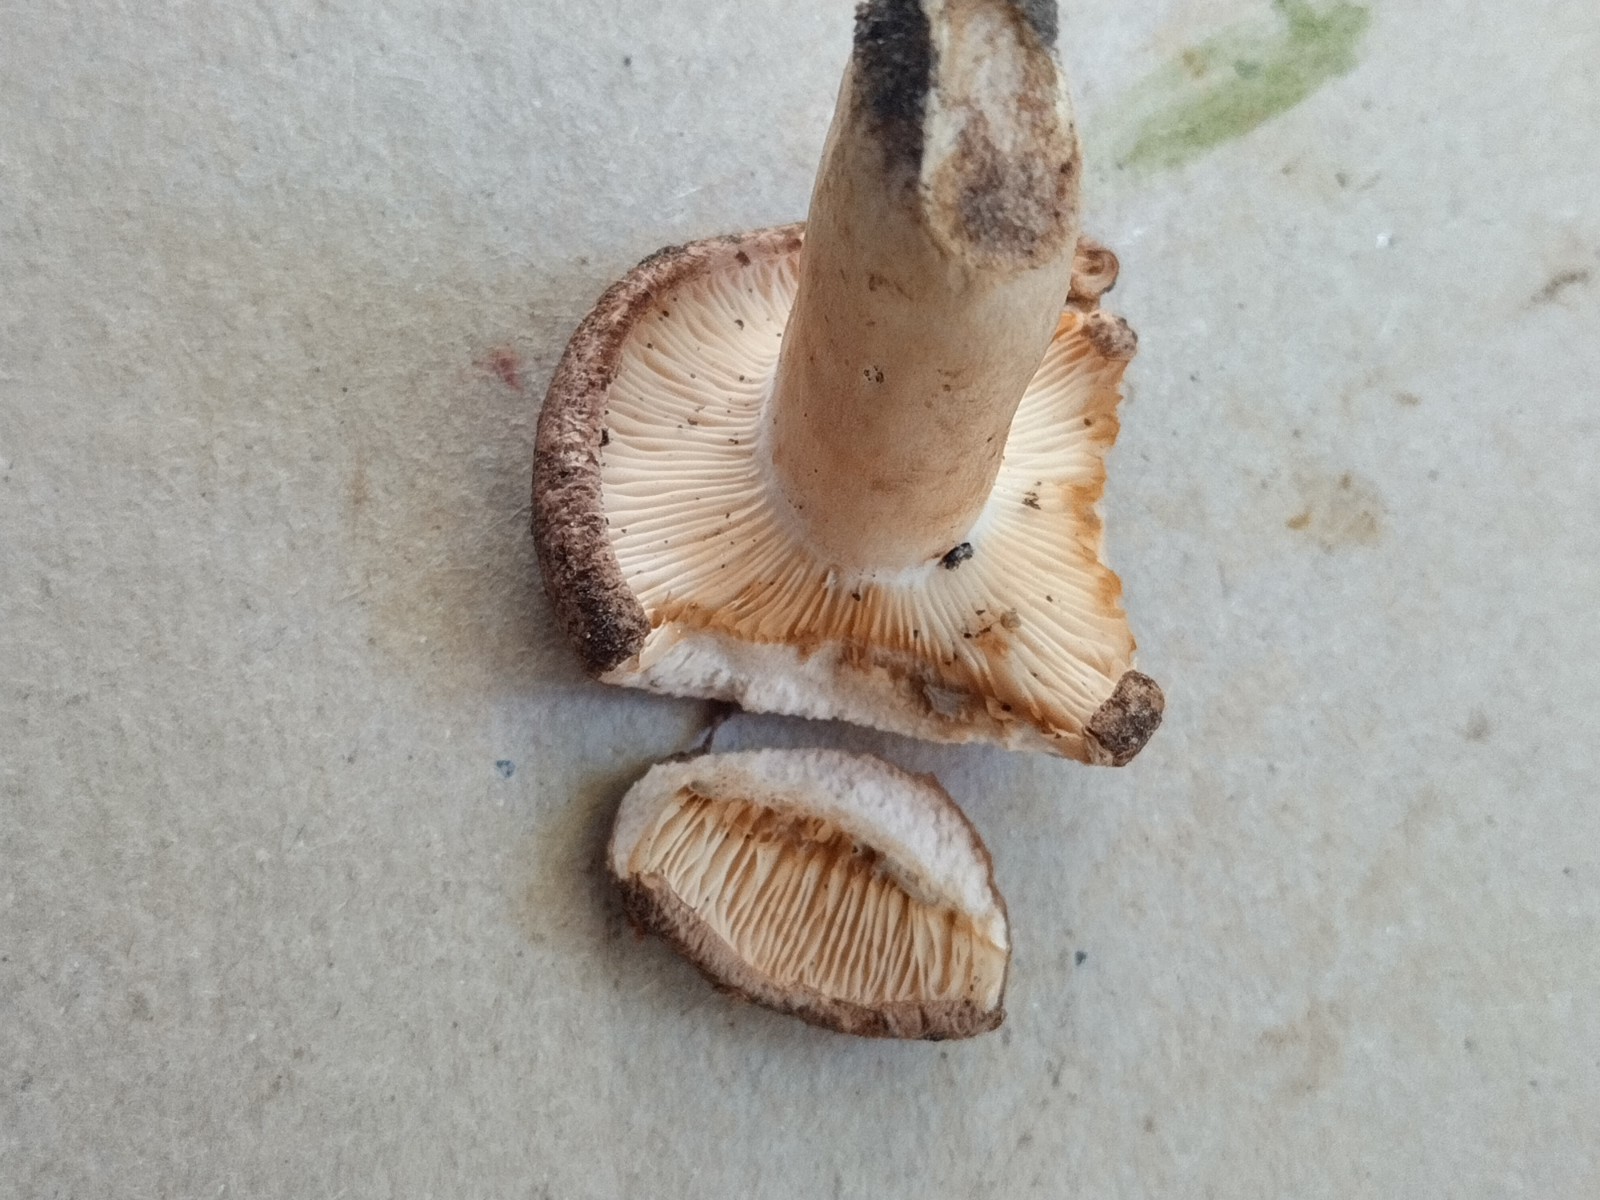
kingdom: Fungi
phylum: Basidiomycota
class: Agaricomycetes
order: Russulales
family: Russulaceae
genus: Lactarius
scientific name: Lactarius
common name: mælkehat
